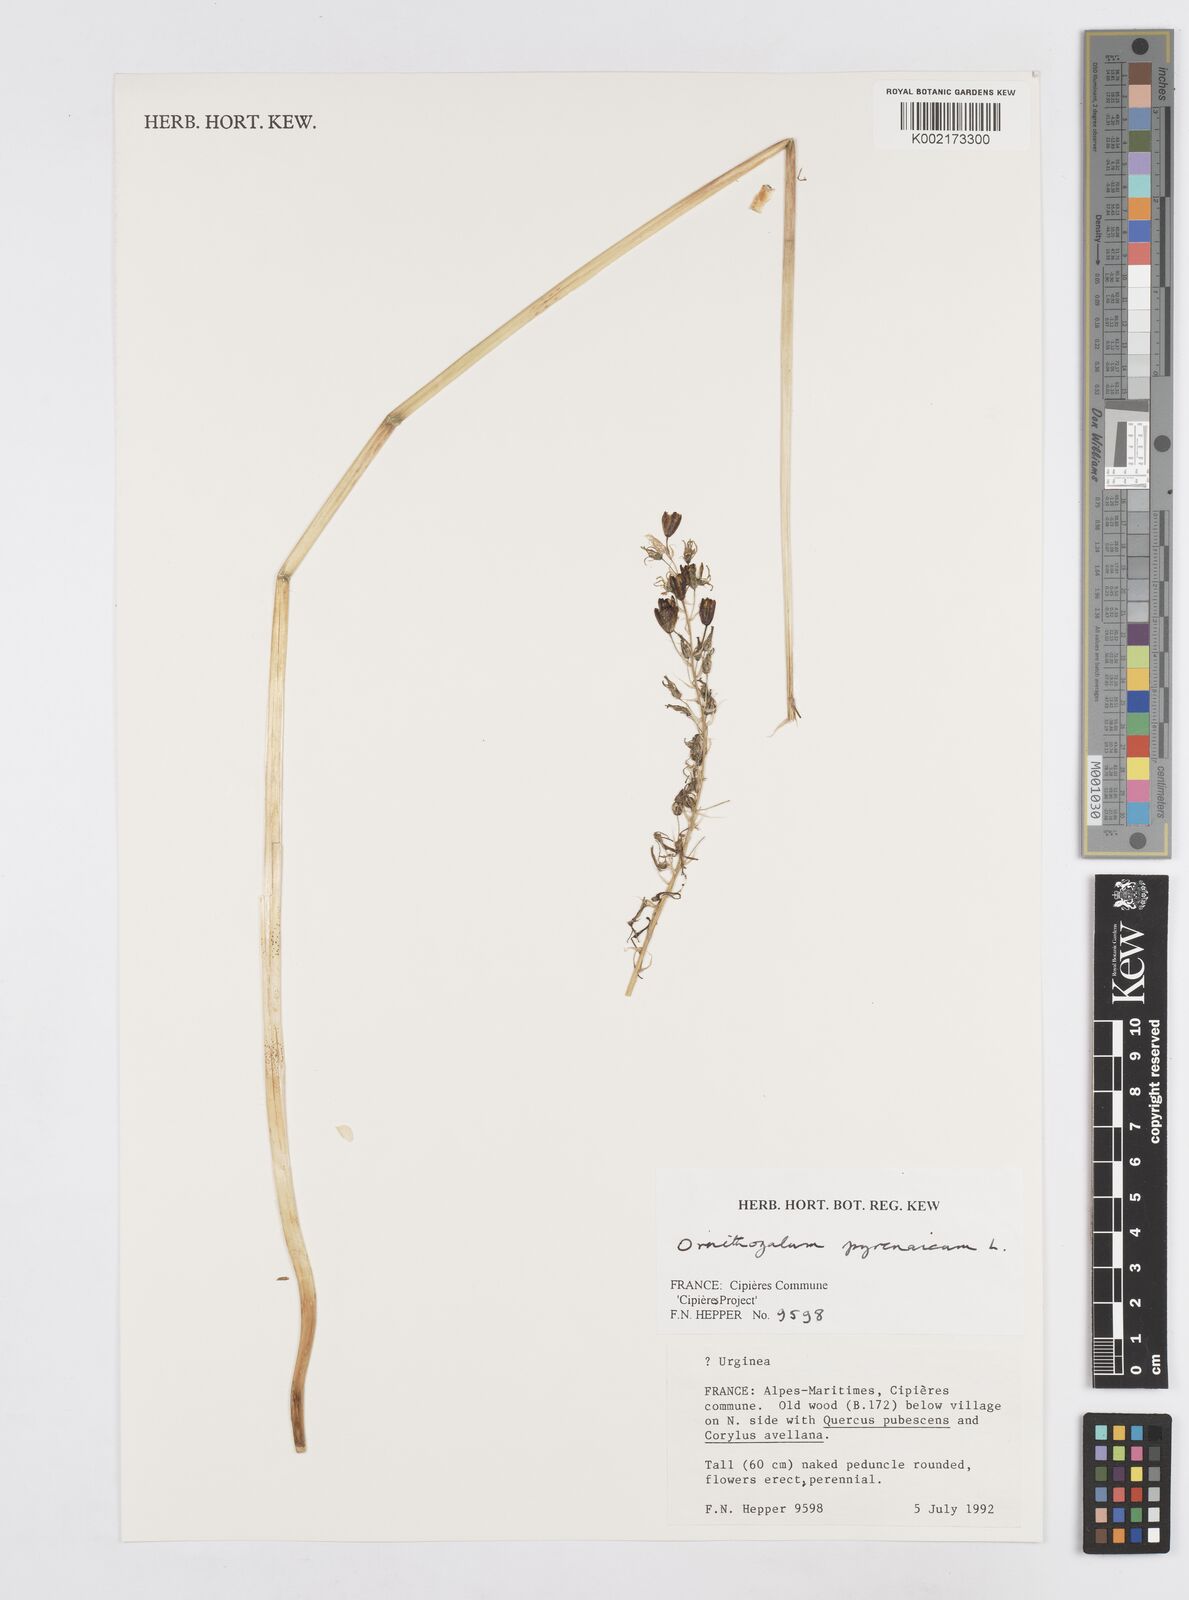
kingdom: Plantae
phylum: Tracheophyta
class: Liliopsida
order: Asparagales
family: Asparagaceae
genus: Ornithogalum
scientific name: Ornithogalum sphaerocarpum
